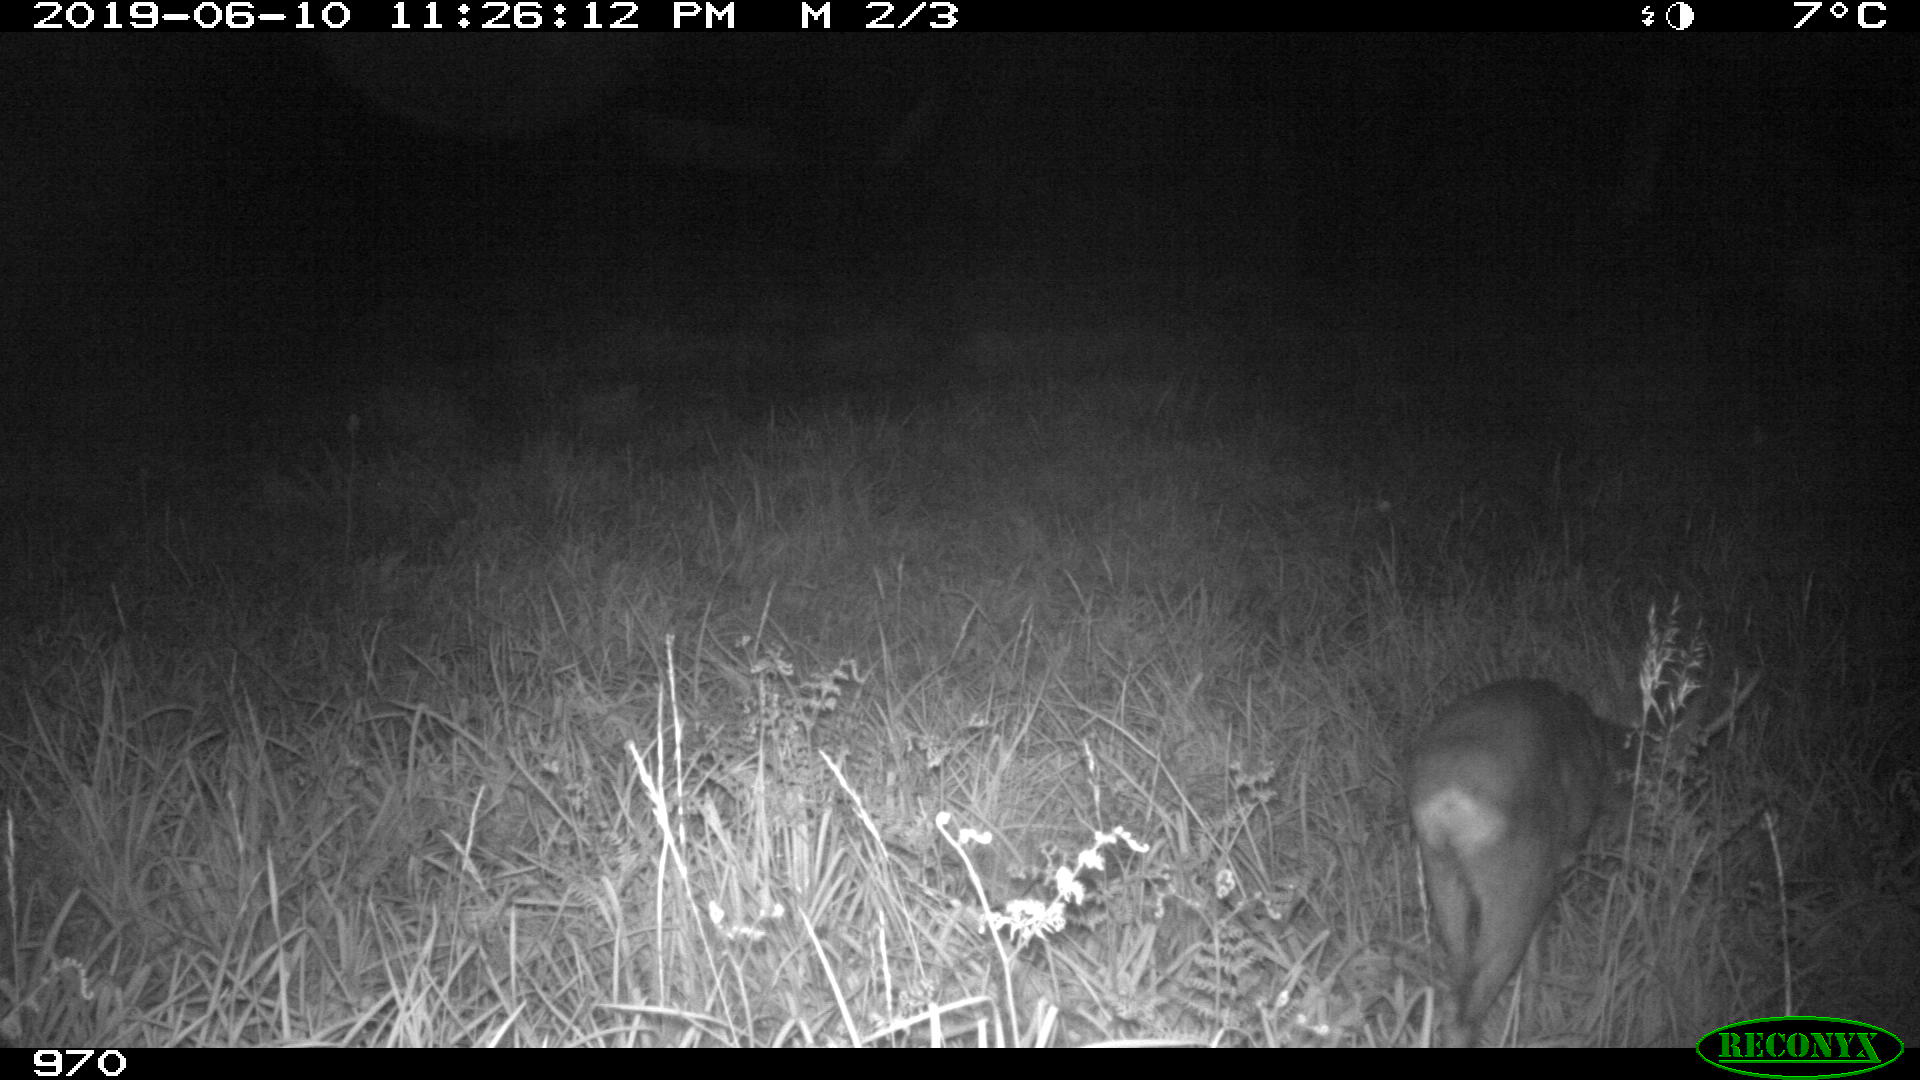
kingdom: Animalia
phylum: Chordata
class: Mammalia
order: Artiodactyla
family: Cervidae
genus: Capreolus
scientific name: Capreolus capreolus
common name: Western roe deer
